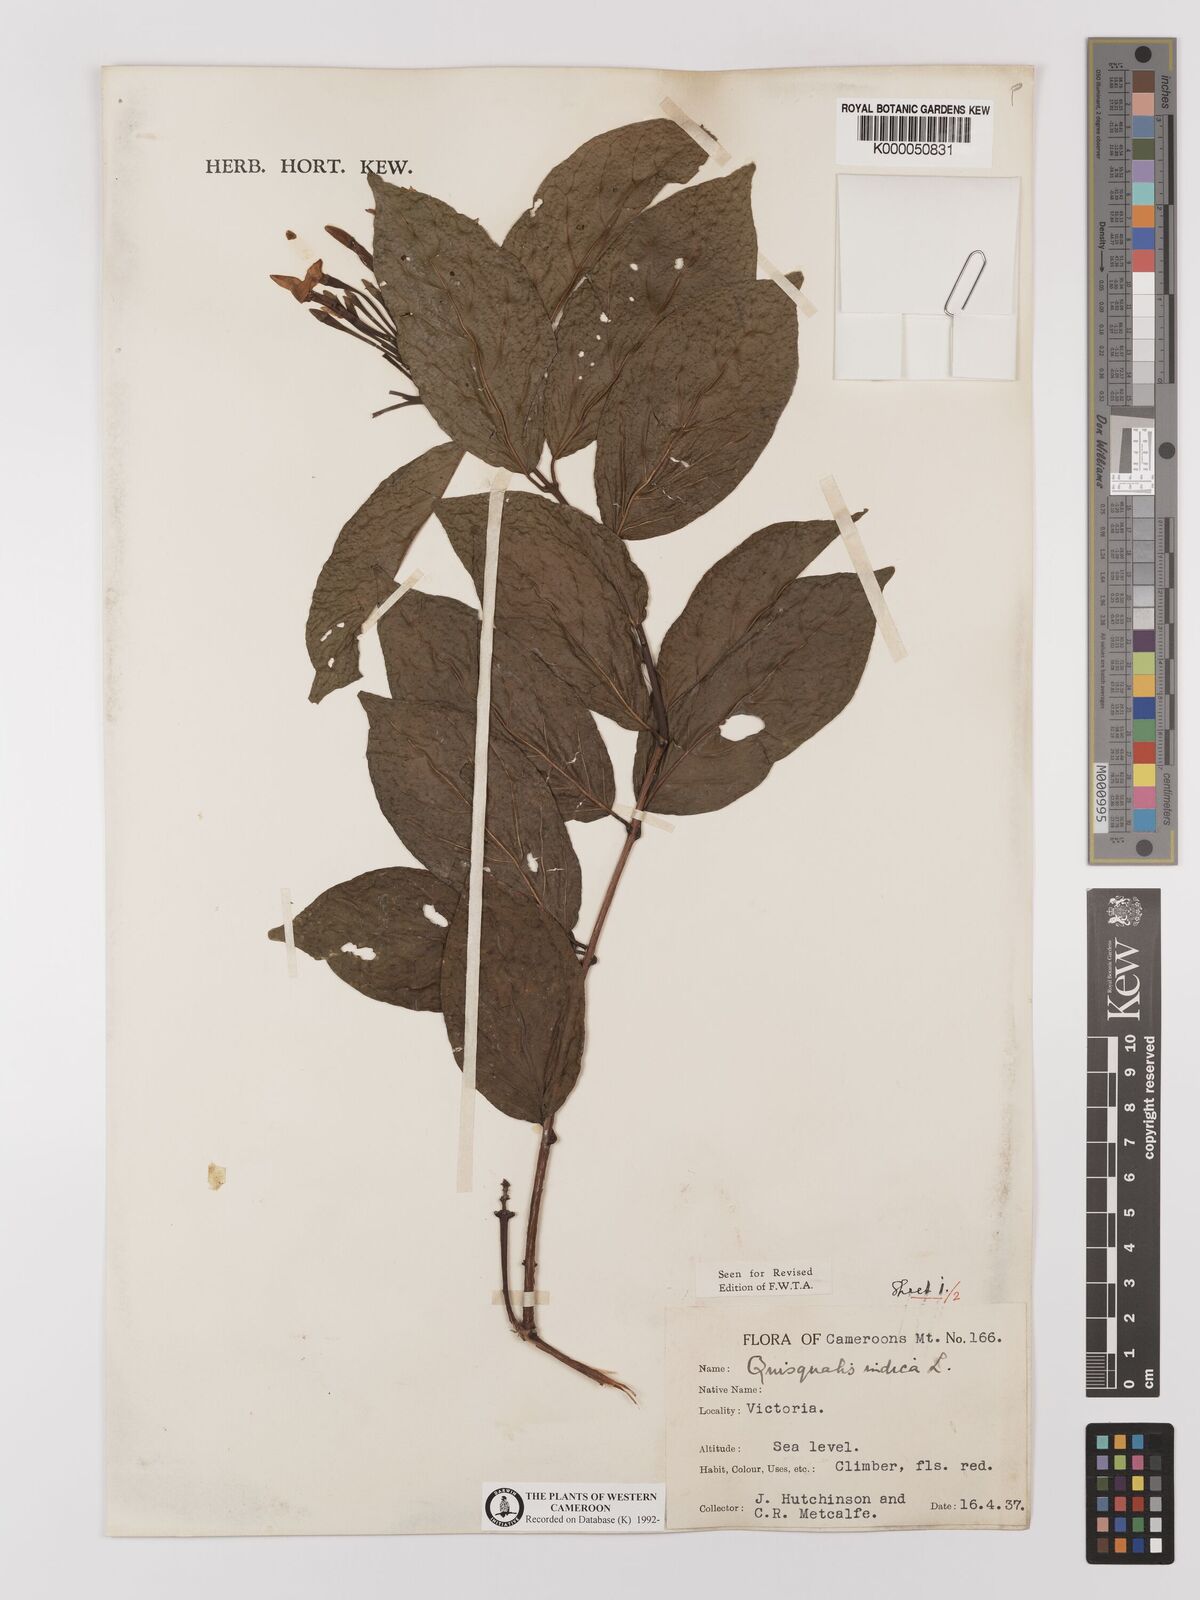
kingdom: Plantae
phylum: Tracheophyta
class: Magnoliopsida
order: Myrtales
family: Combretaceae
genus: Combretum
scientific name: Combretum indicum
